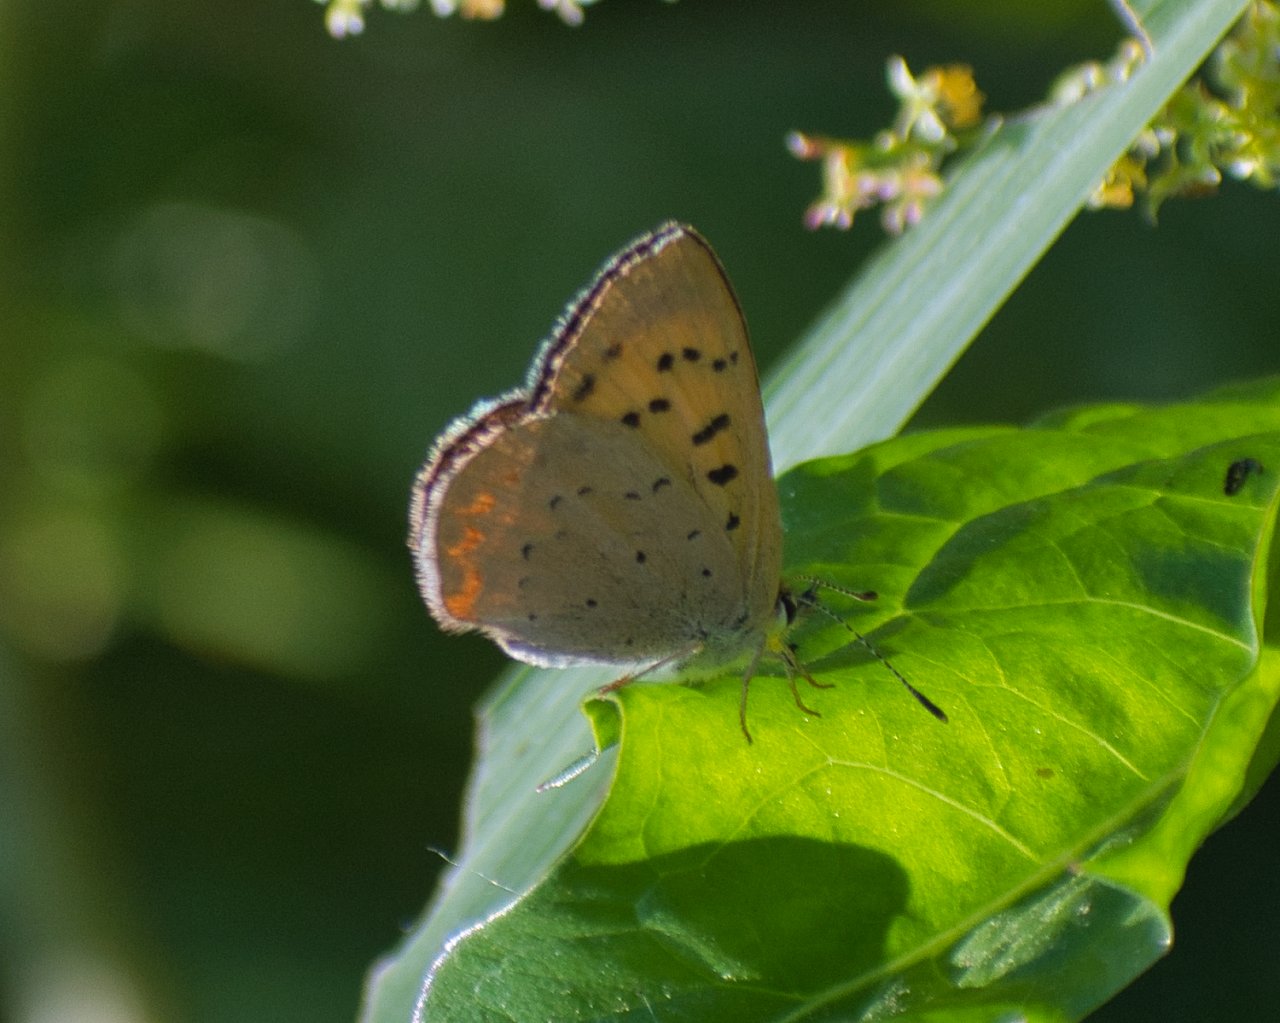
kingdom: Animalia
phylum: Arthropoda
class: Insecta
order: Lepidoptera
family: Sesiidae
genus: Sesia
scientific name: Sesia Lycaena helloides
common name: Purplish Copper
